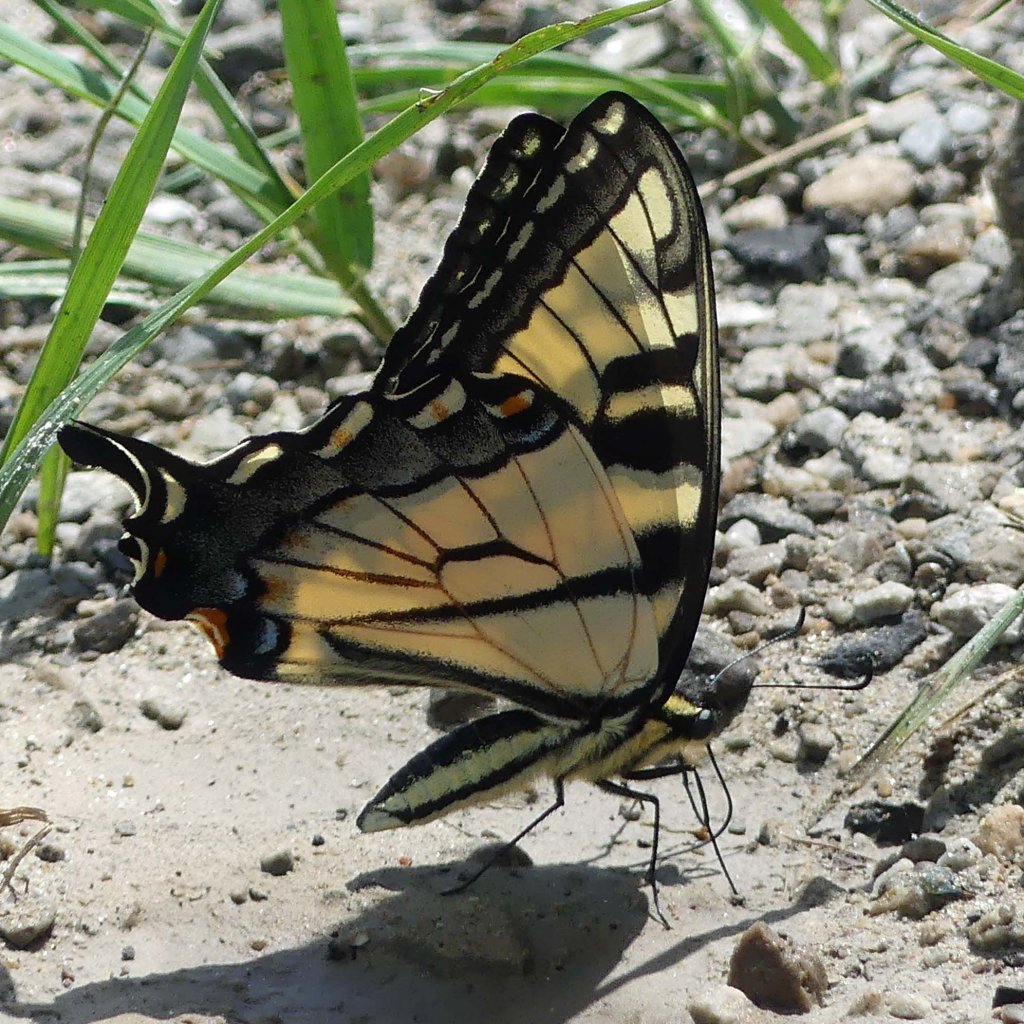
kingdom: Animalia
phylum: Arthropoda
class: Insecta
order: Lepidoptera
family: Papilionidae
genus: Pterourus
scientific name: Pterourus glaucus
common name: Eastern Tiger Swallowtail
